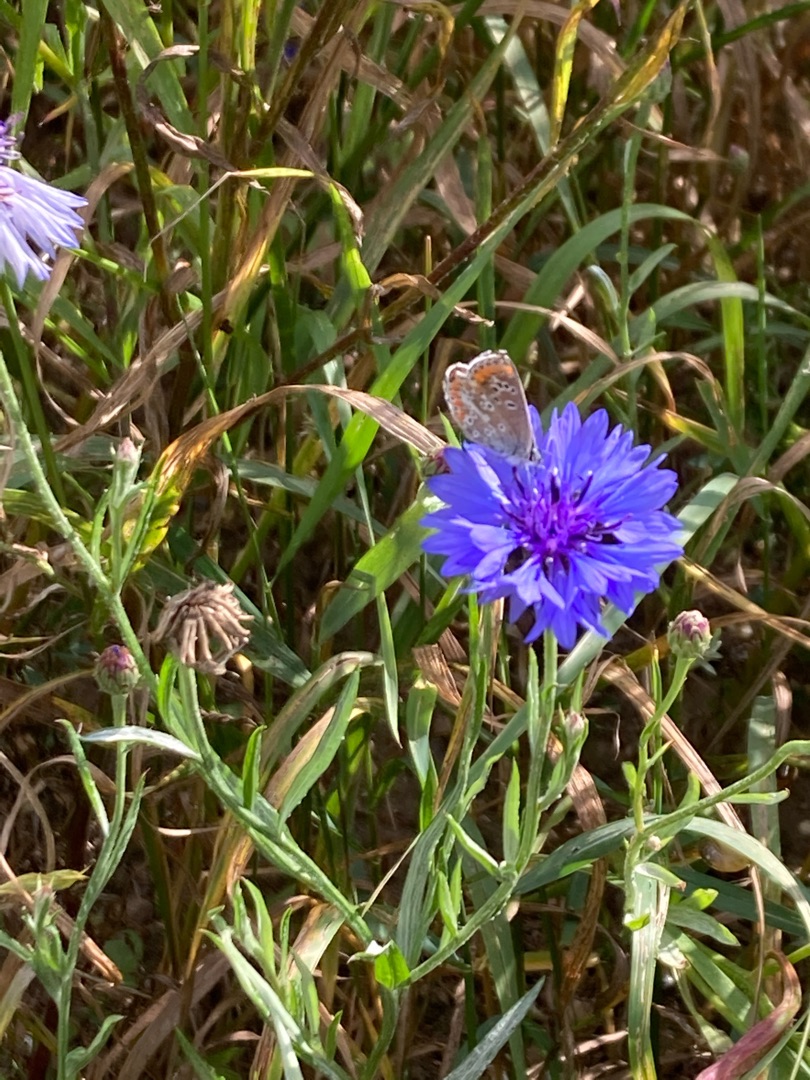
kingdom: Animalia
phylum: Arthropoda
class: Insecta
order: Lepidoptera
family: Lycaenidae
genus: Polyommatus
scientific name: Polyommatus icarus
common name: Almindelig blåfugl
